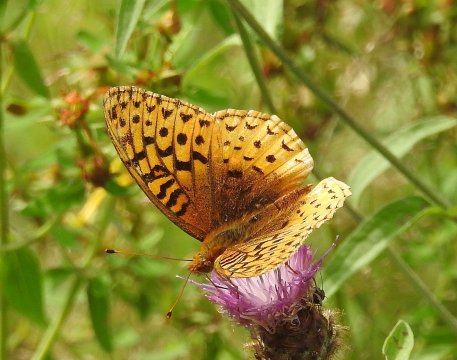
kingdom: Animalia
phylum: Arthropoda
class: Insecta
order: Lepidoptera
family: Nymphalidae
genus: Speyeria
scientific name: Speyeria cybele
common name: Great Spangled Fritillary
